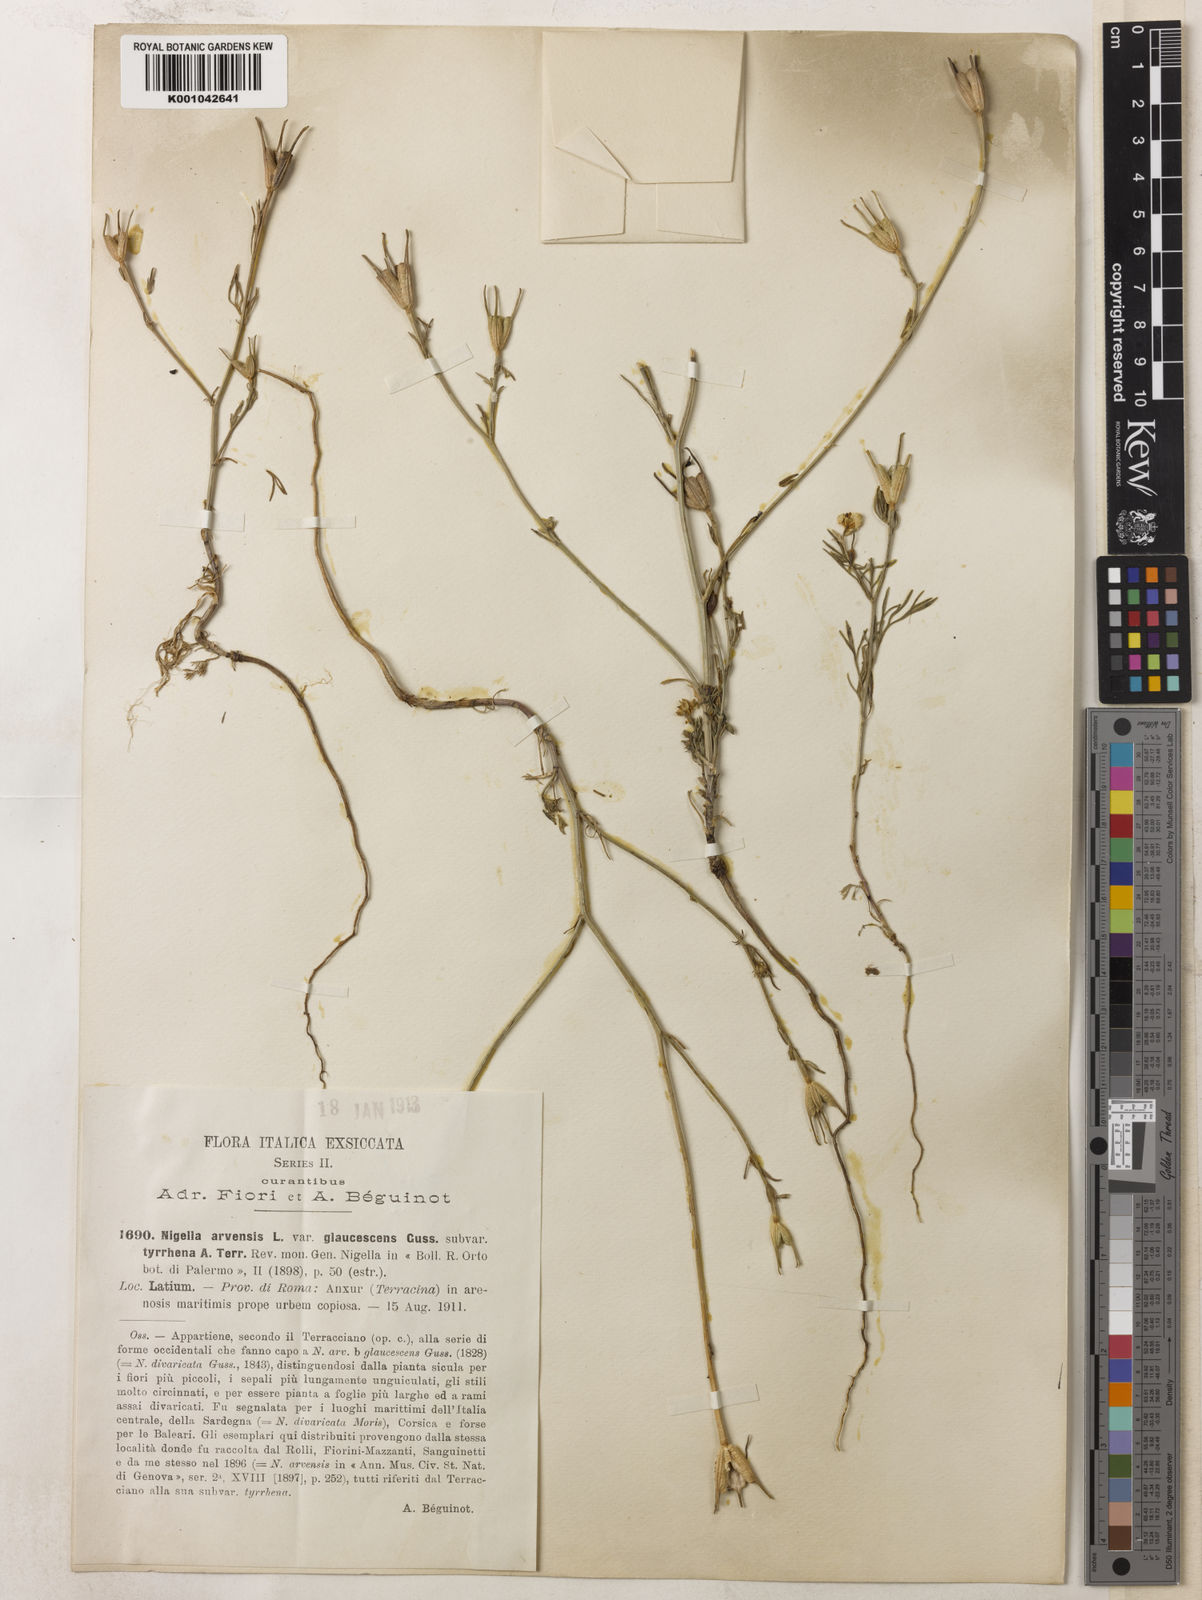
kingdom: Plantae
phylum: Tracheophyta
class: Magnoliopsida
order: Ranunculales
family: Ranunculaceae
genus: Nigella
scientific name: Nigella arvensis
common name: Wild fennel-flower
